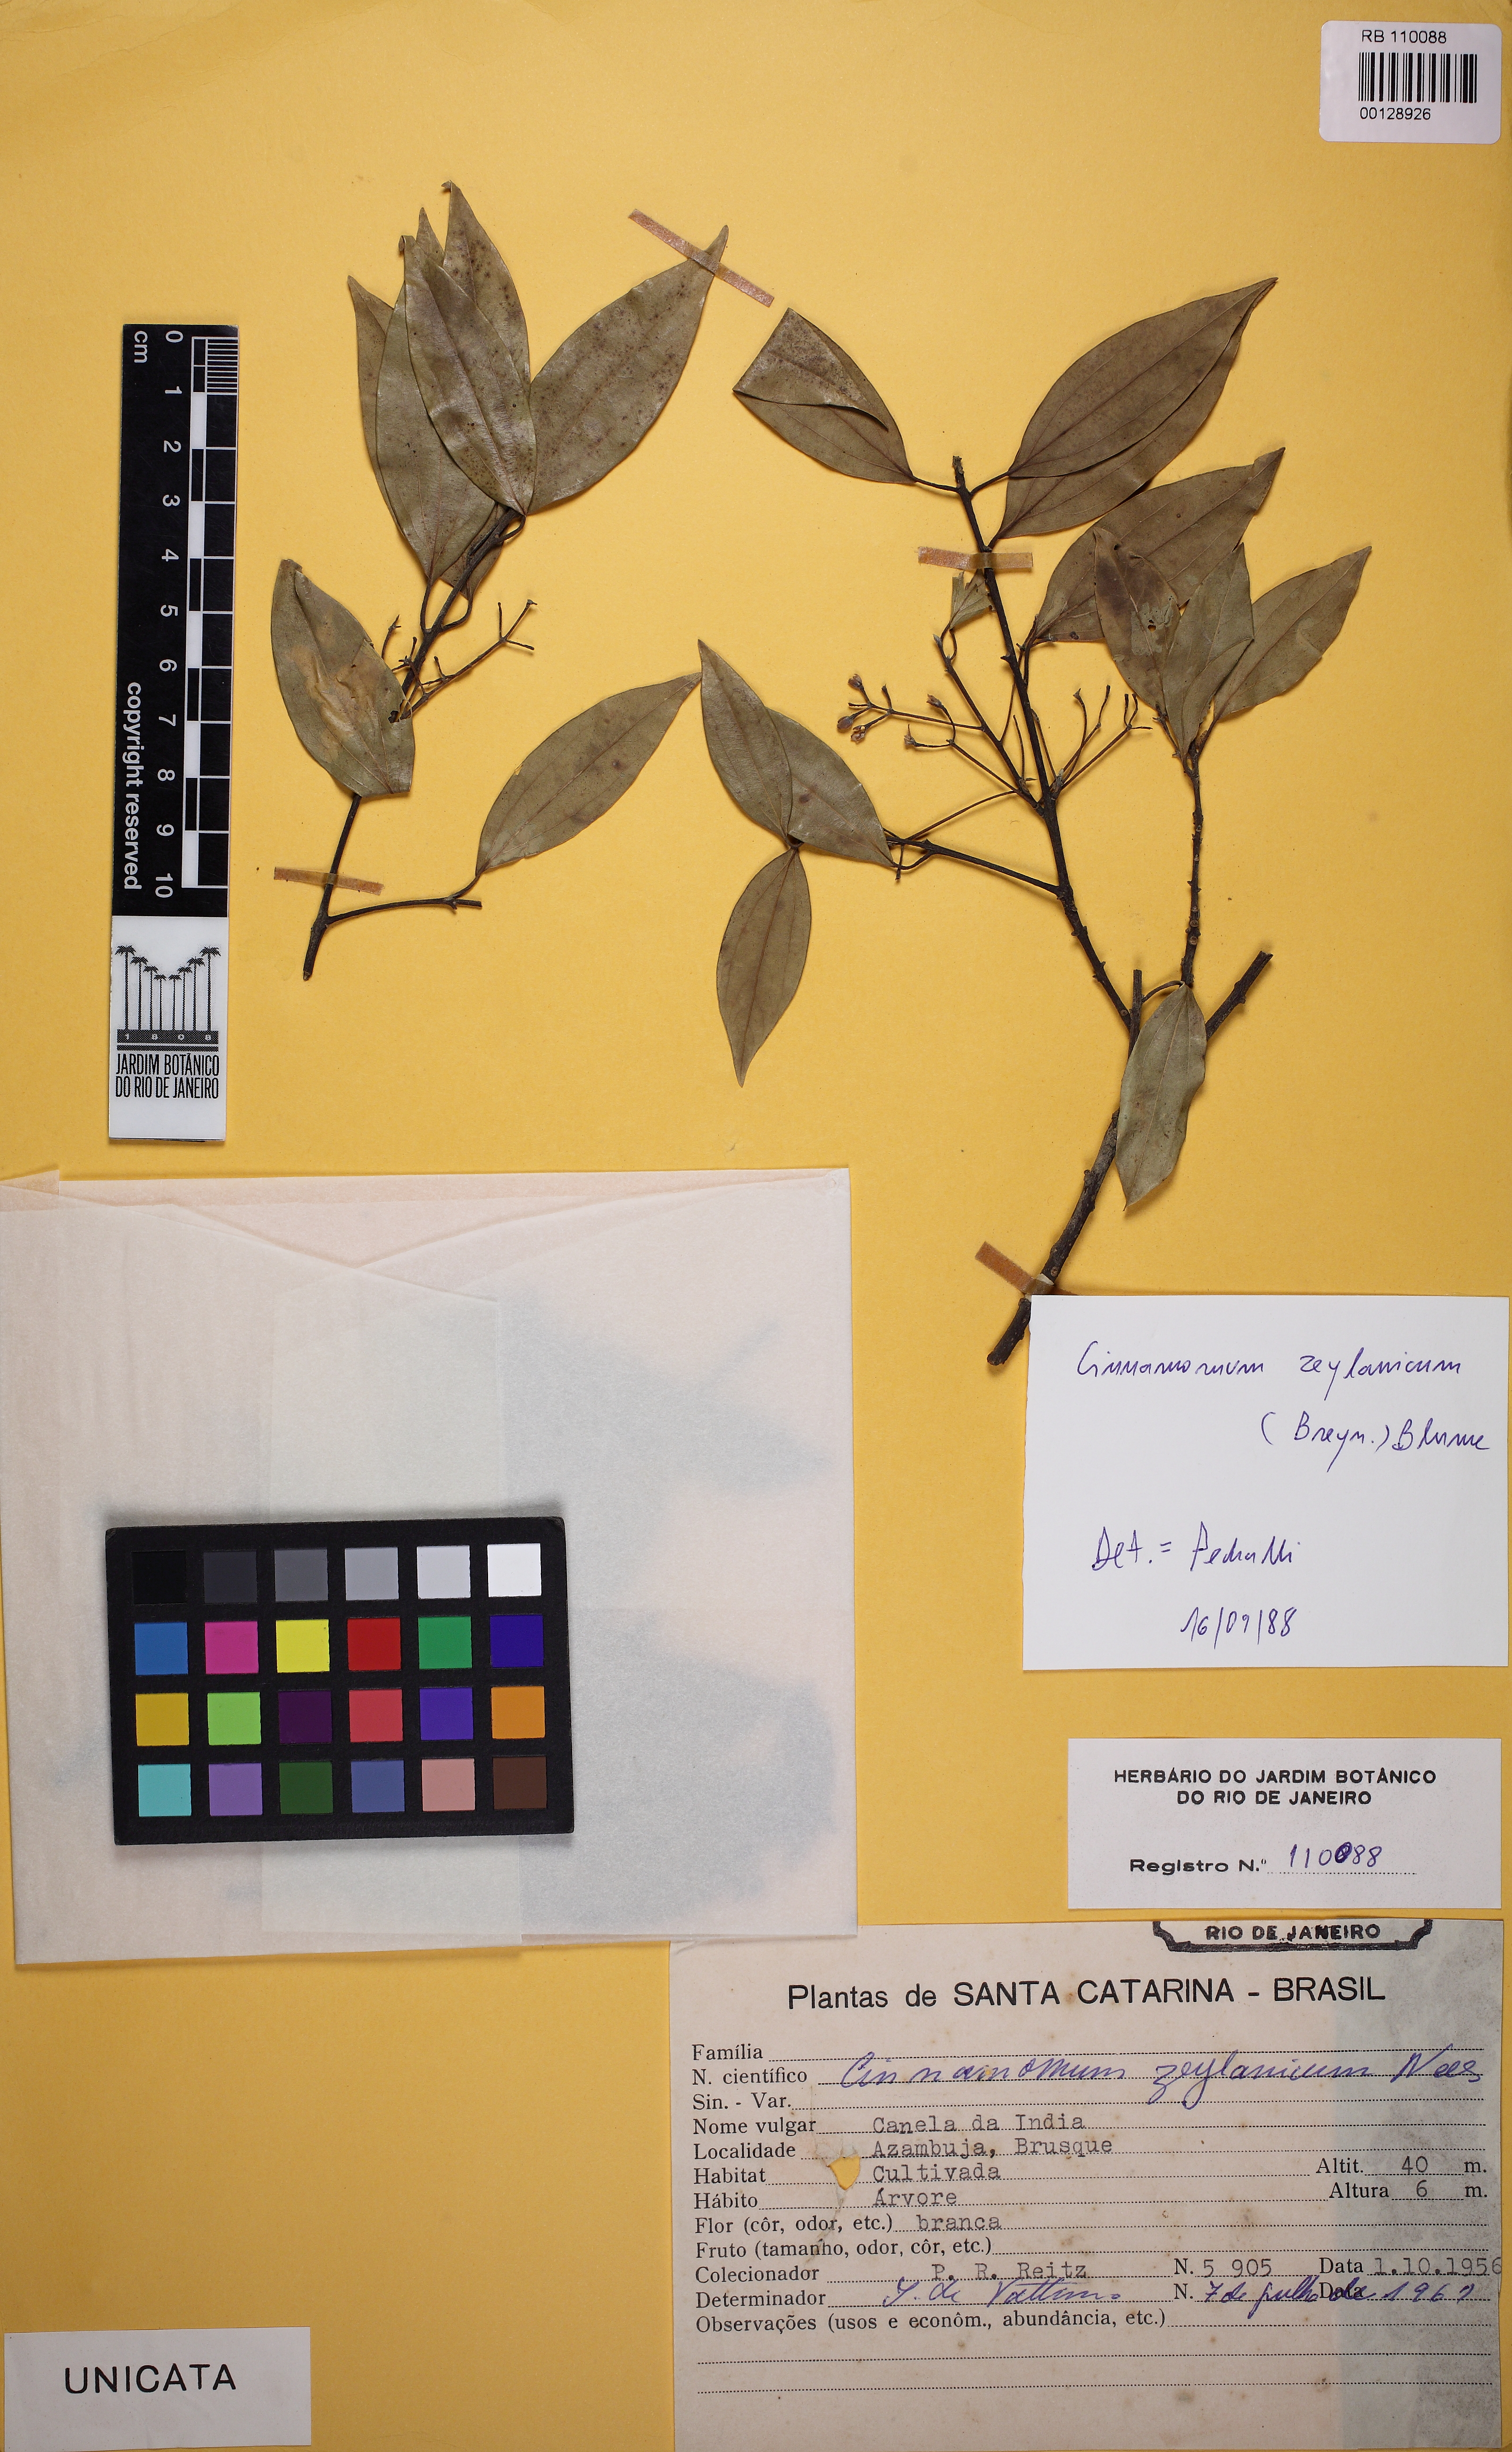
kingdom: Plantae
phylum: Tracheophyta
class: Magnoliopsida
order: Laurales
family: Lauraceae
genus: Cinnamomum
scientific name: Cinnamomum verum
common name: Cinnamon
